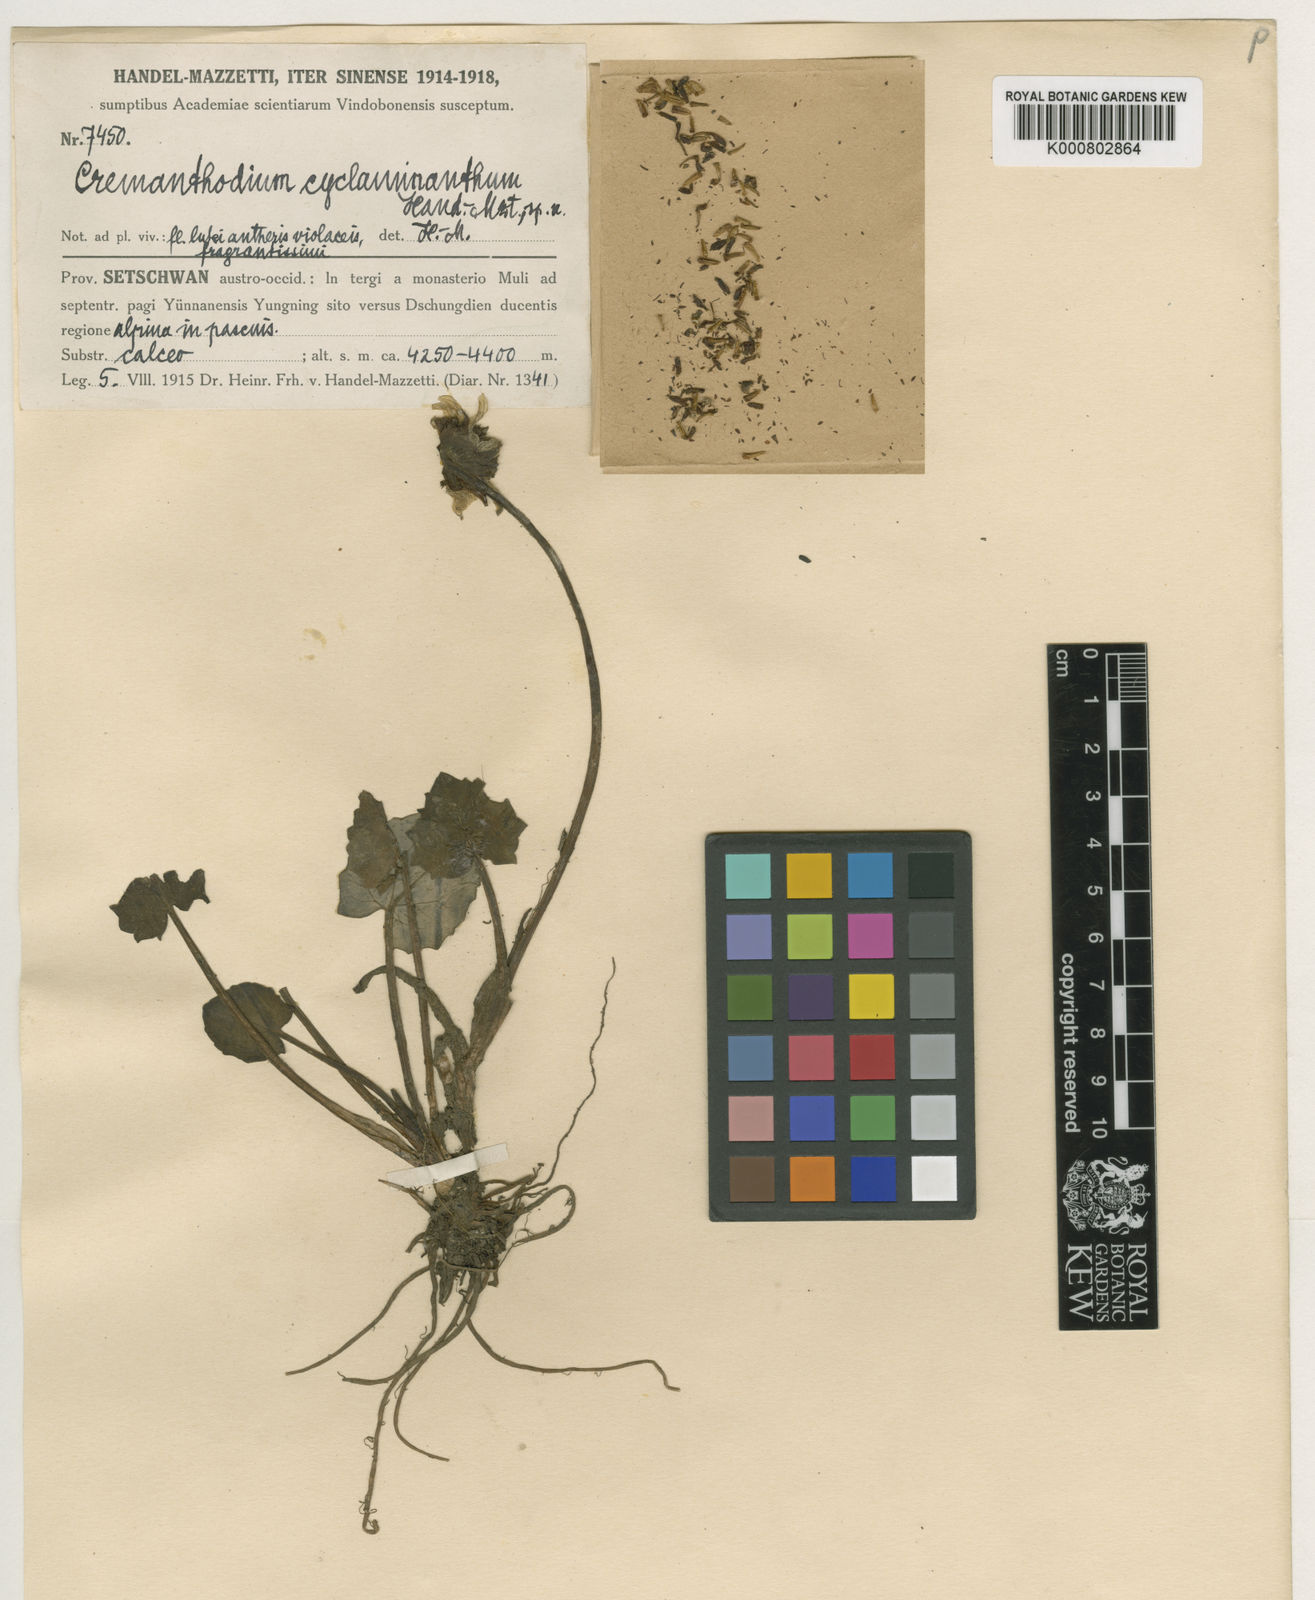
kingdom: Plantae
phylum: Tracheophyta
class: Magnoliopsida
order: Asterales
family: Asteraceae
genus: Cremanthodium
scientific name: Cremanthodium cyclaminanthum
